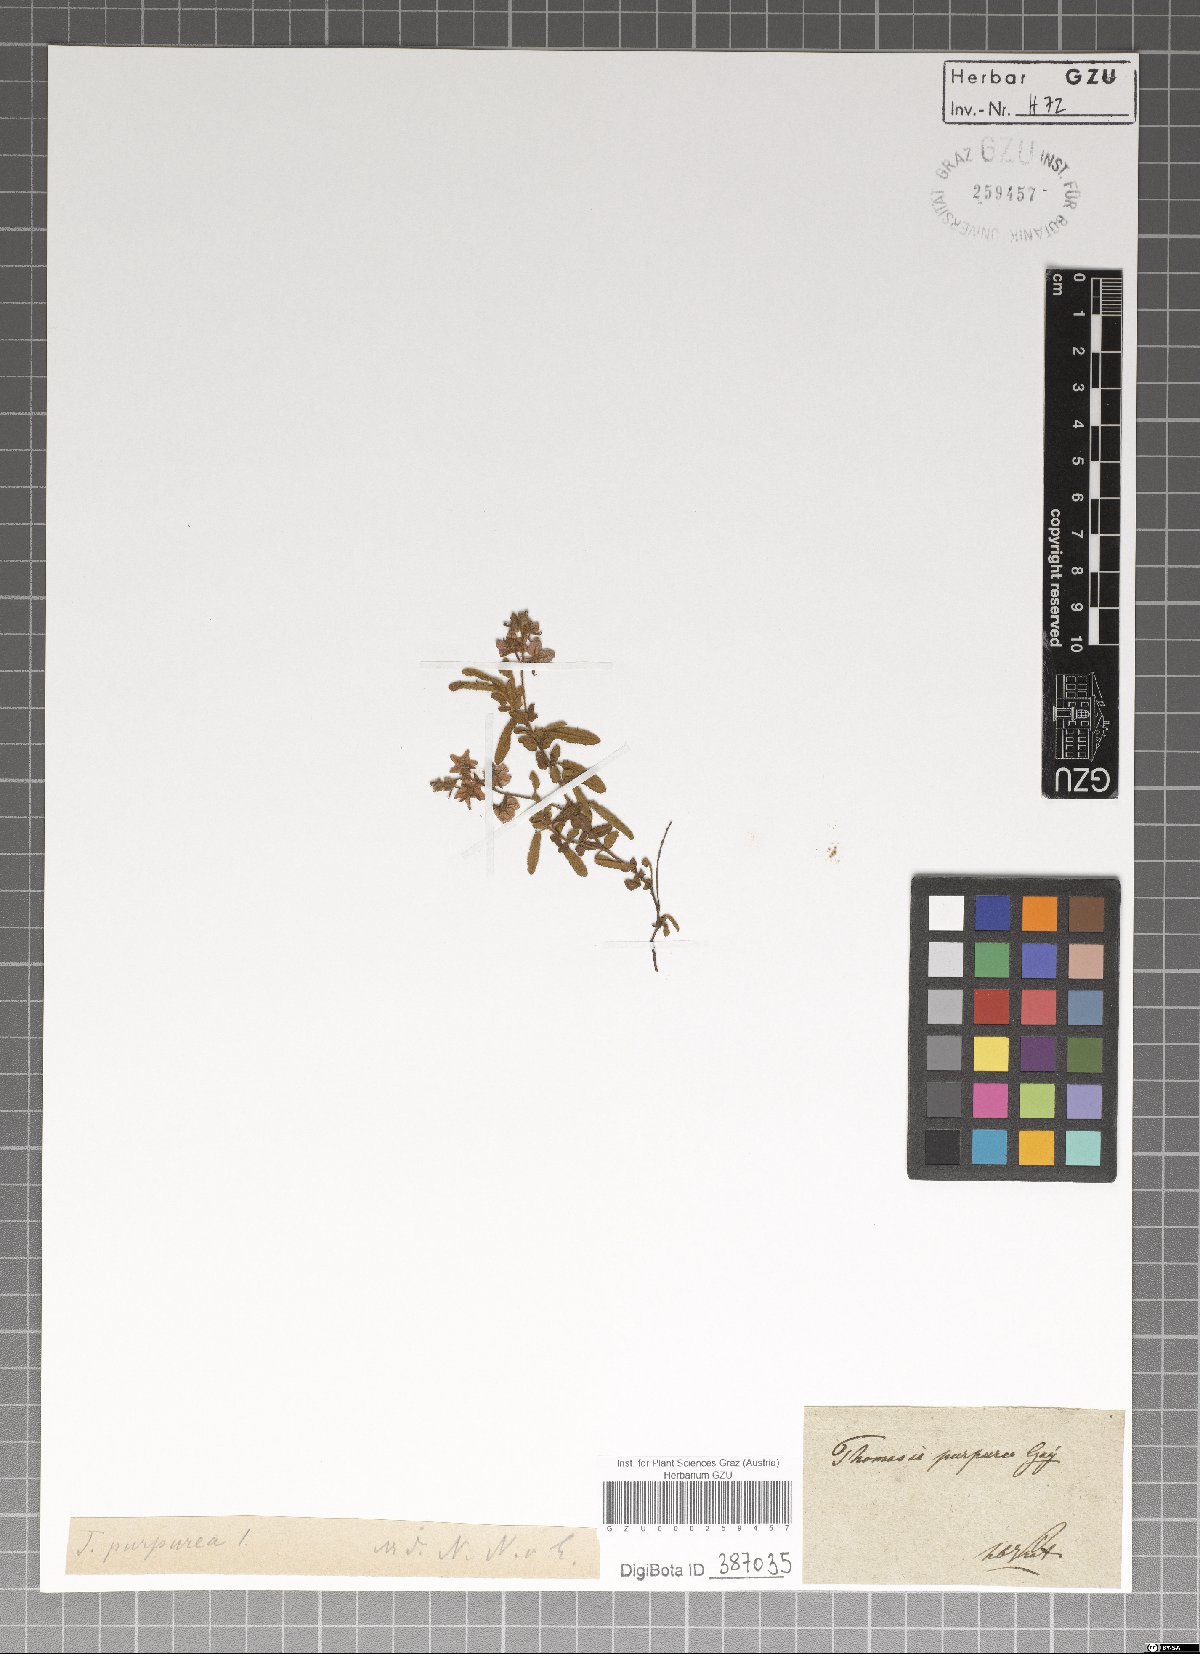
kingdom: Plantae
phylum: Tracheophyta
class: Magnoliopsida
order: Malvales
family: Malvaceae
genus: Thomasia
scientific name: Thomasia purpurea
